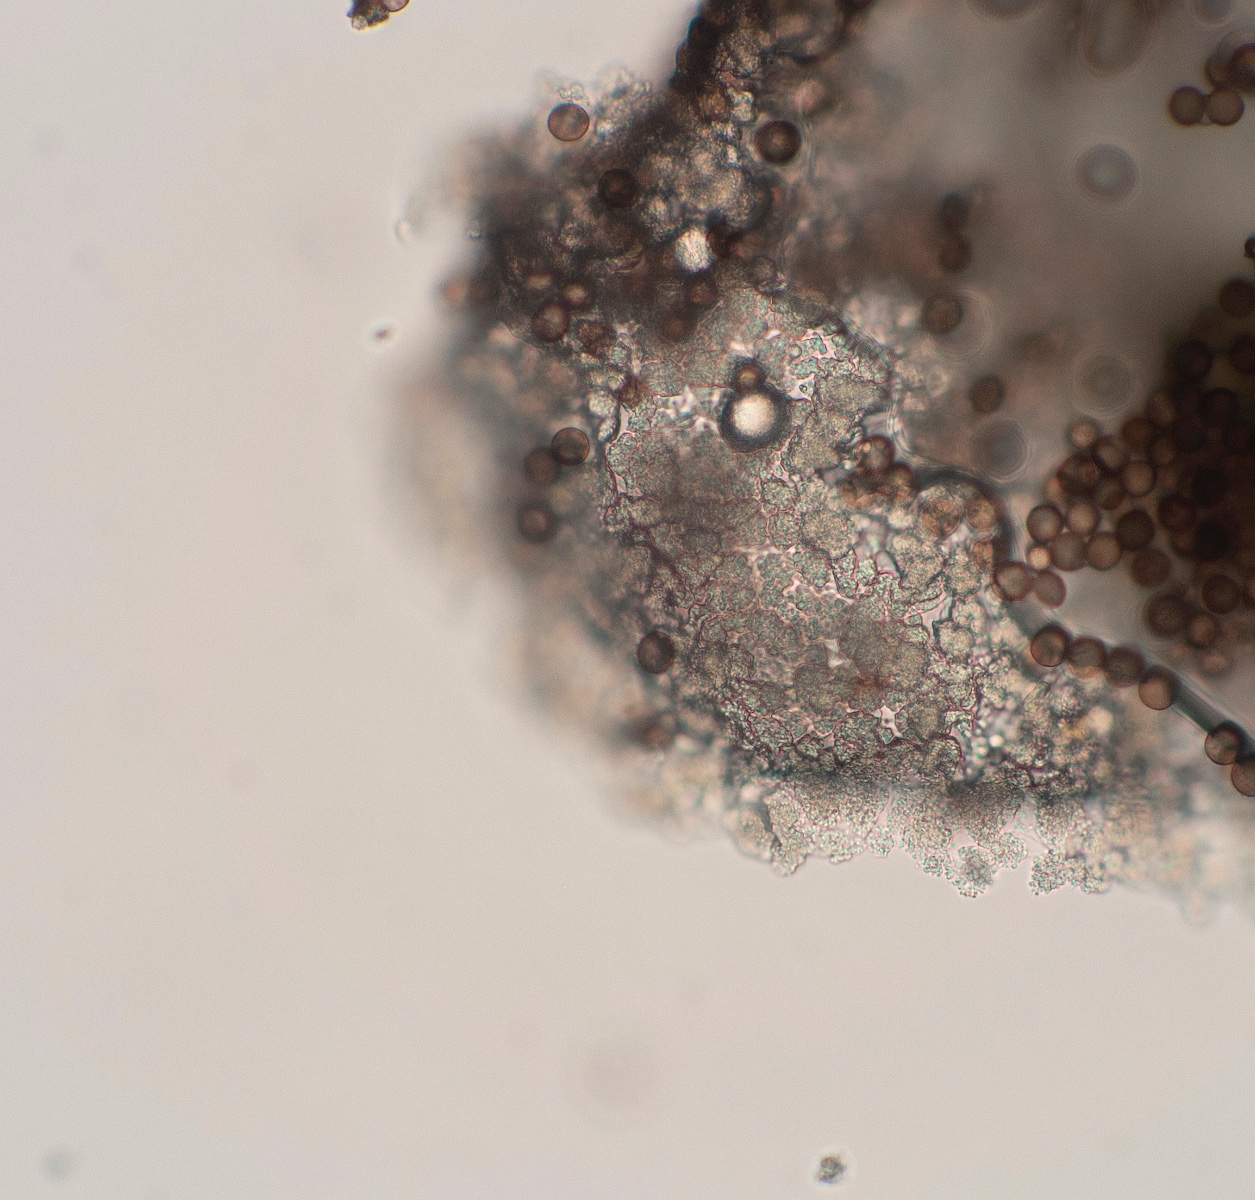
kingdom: Protozoa
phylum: Mycetozoa
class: Myxomycetes
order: Physarales
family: Physaraceae
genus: Physarum
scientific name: Physarum album
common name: nikkende støvknop
